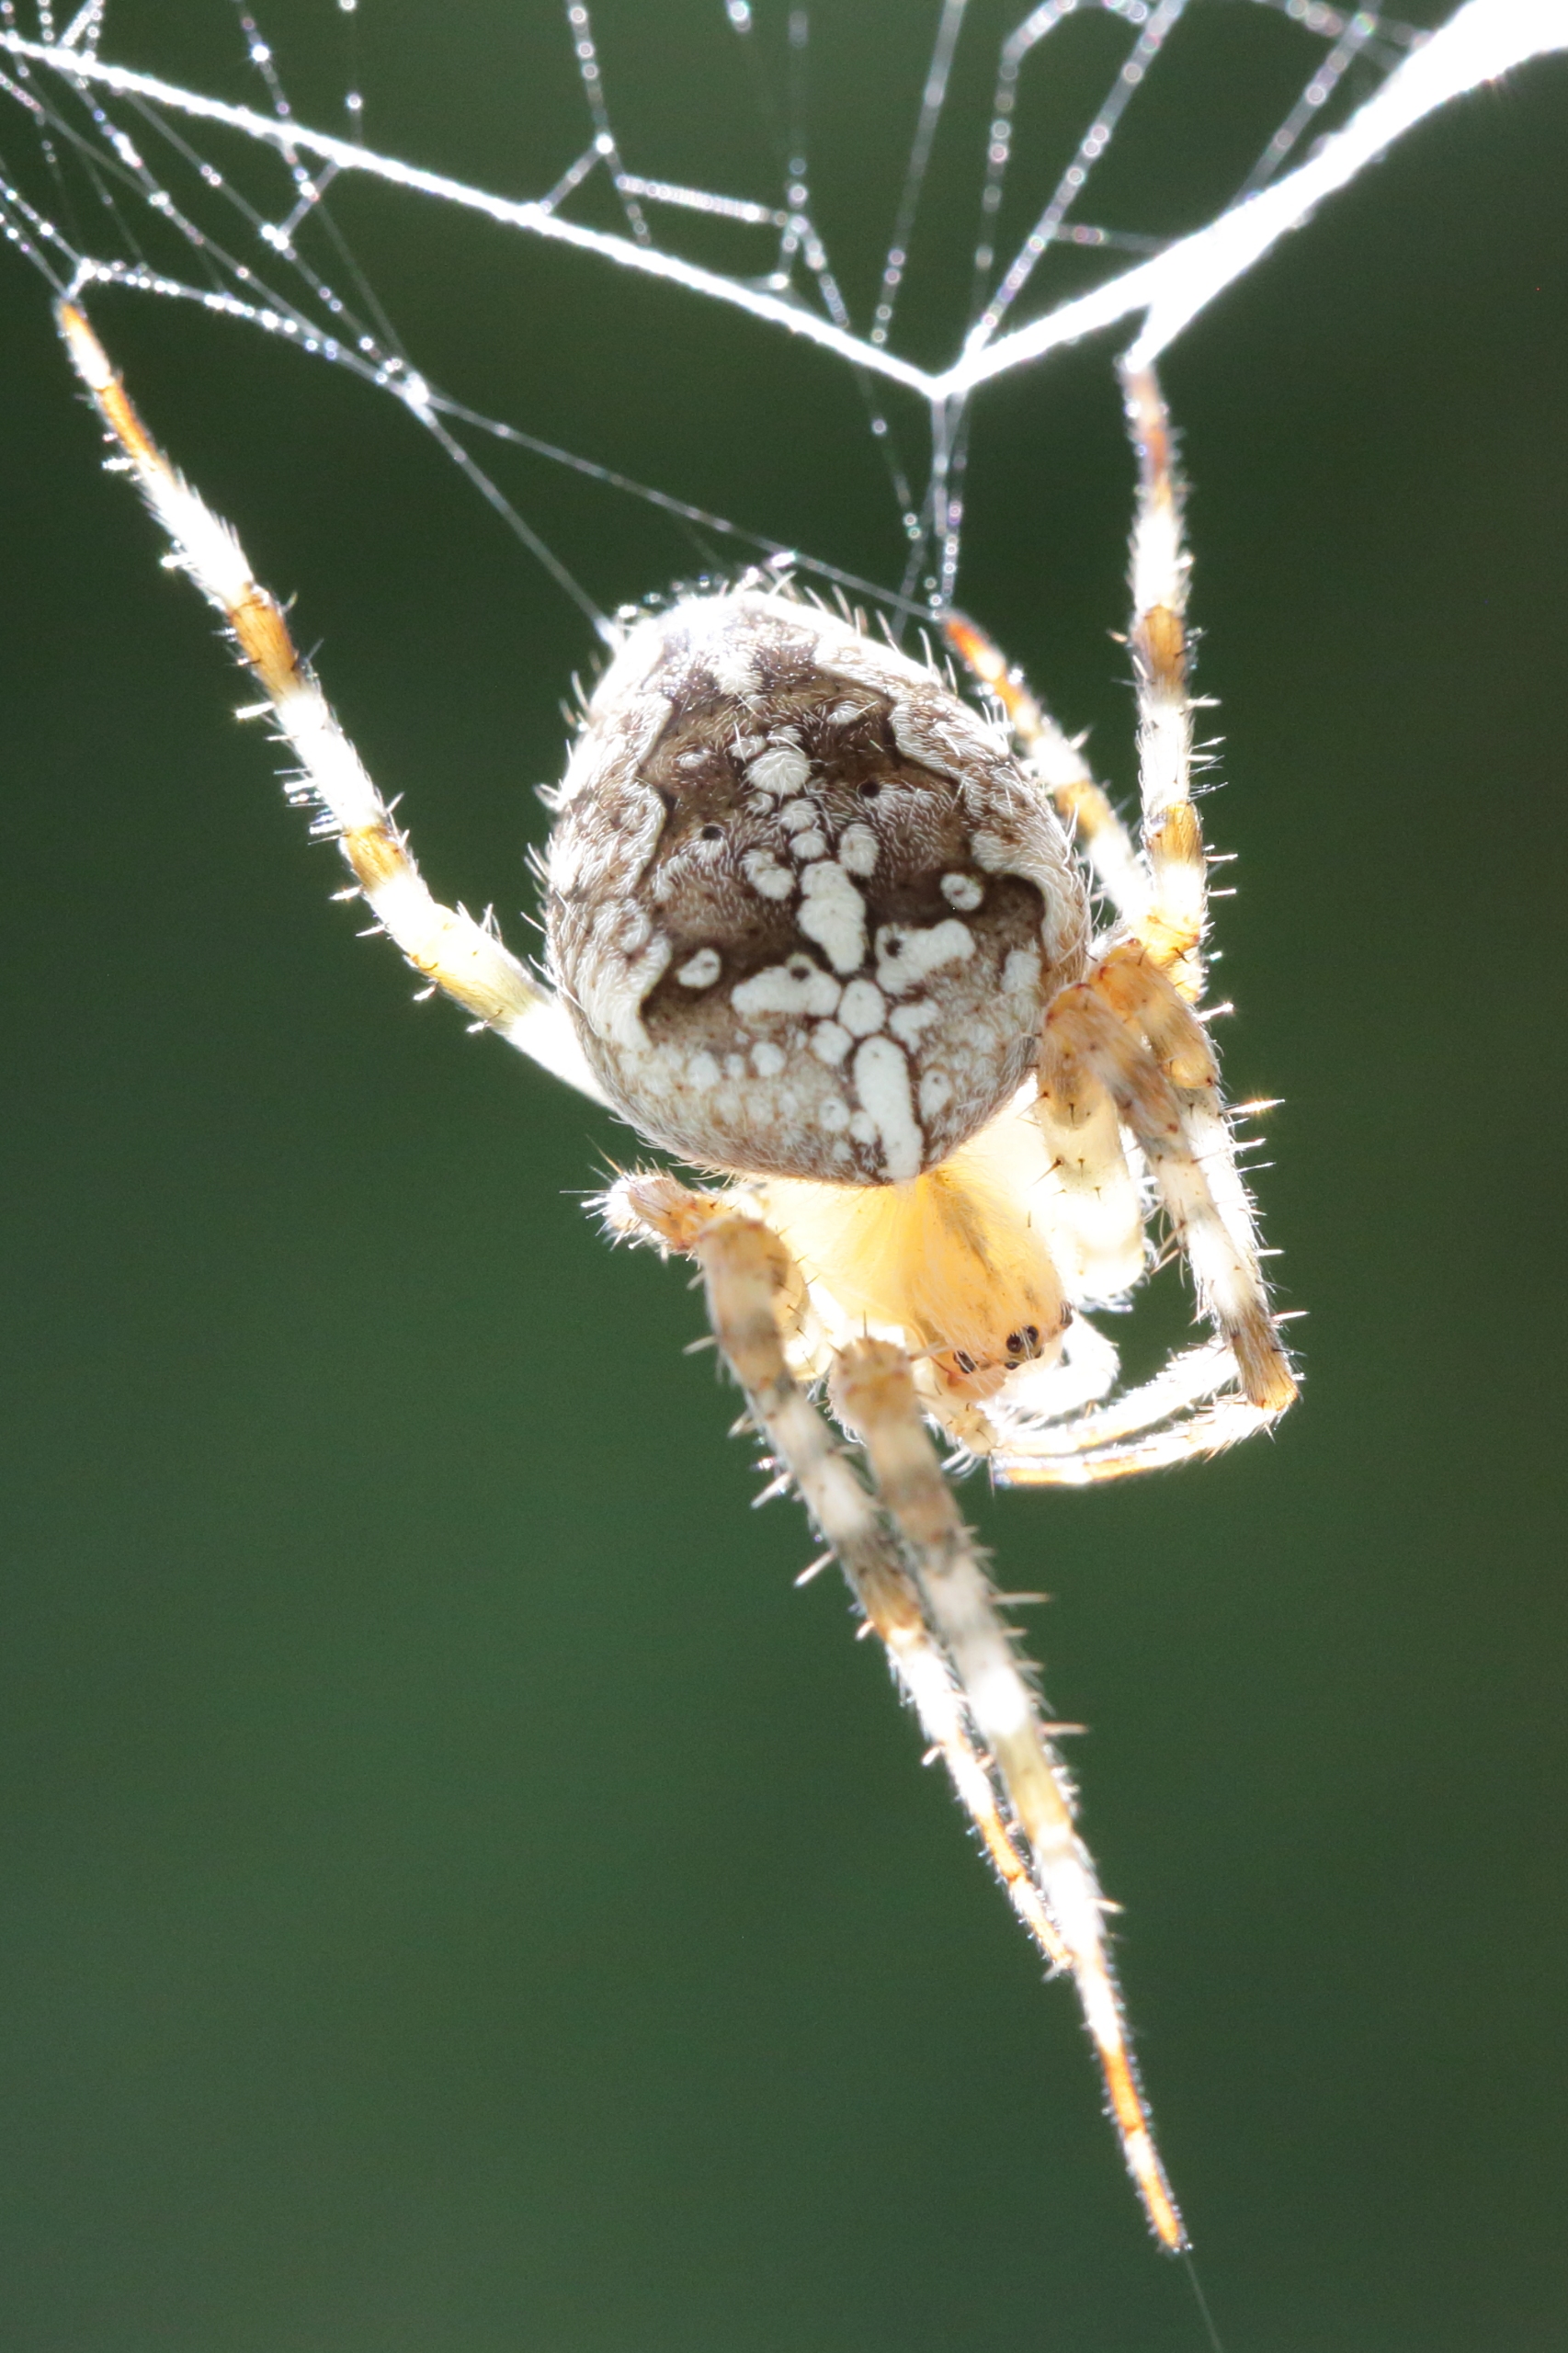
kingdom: Animalia
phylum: Arthropoda
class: Arachnida
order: Araneae
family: Araneidae
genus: Araneus
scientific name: Araneus diadematus
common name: Korsedderkop
